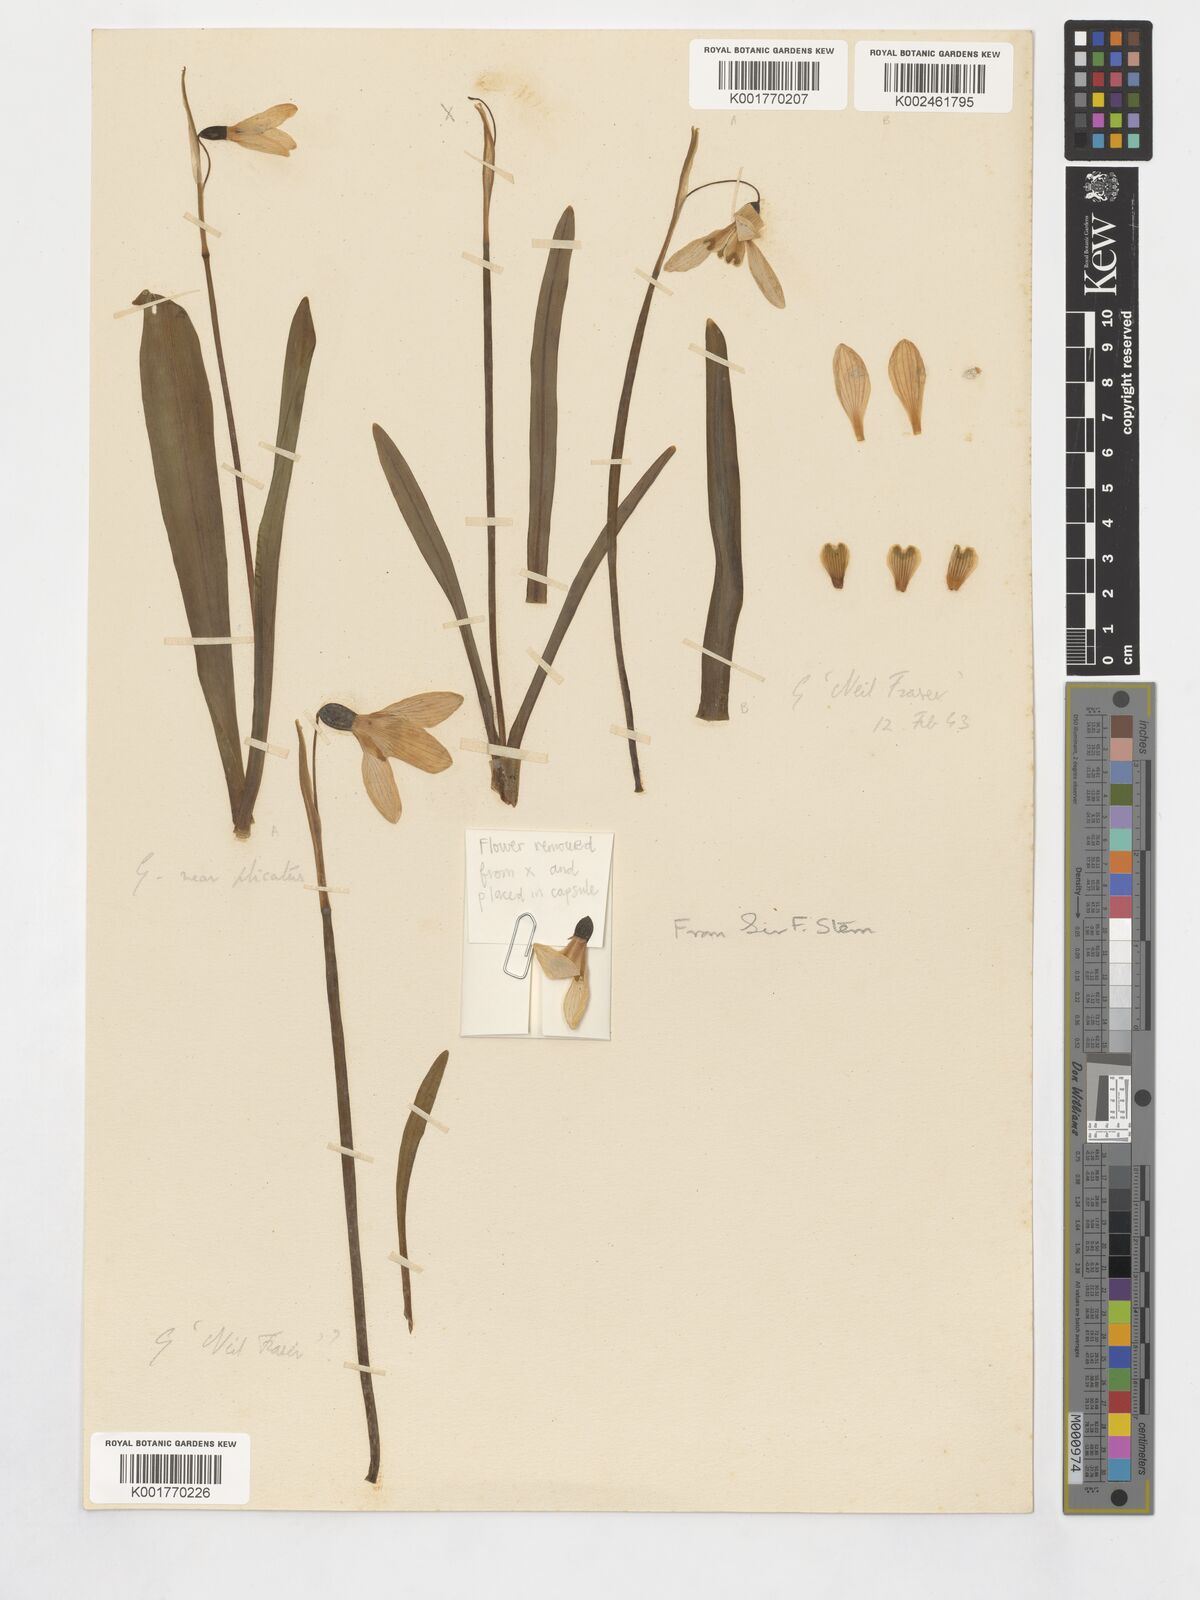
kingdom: Plantae
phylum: Tracheophyta
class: Liliopsida
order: Asparagales
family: Amaryllidaceae
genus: Galanthus
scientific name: Galanthus nivalis
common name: Snowdrop
